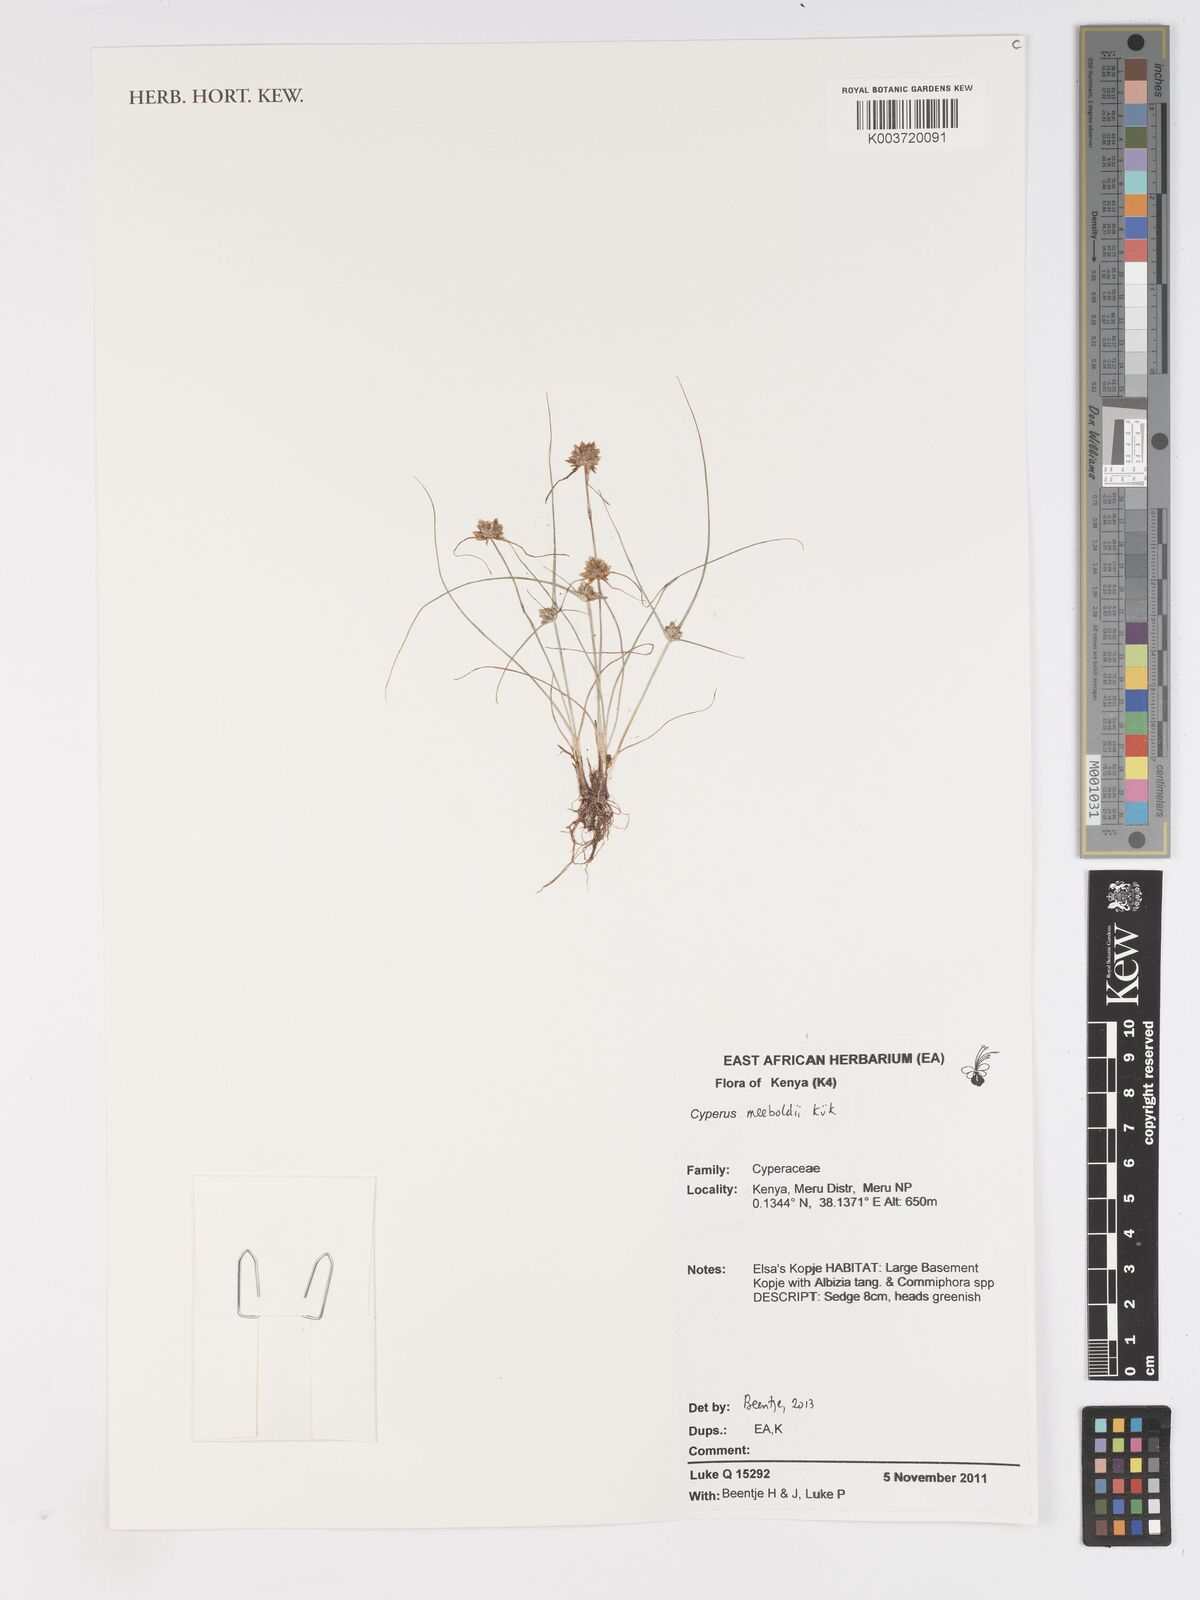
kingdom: Plantae
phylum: Tracheophyta
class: Liliopsida
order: Poales
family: Cyperaceae
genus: Cyperus
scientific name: Cyperus meeboldii
